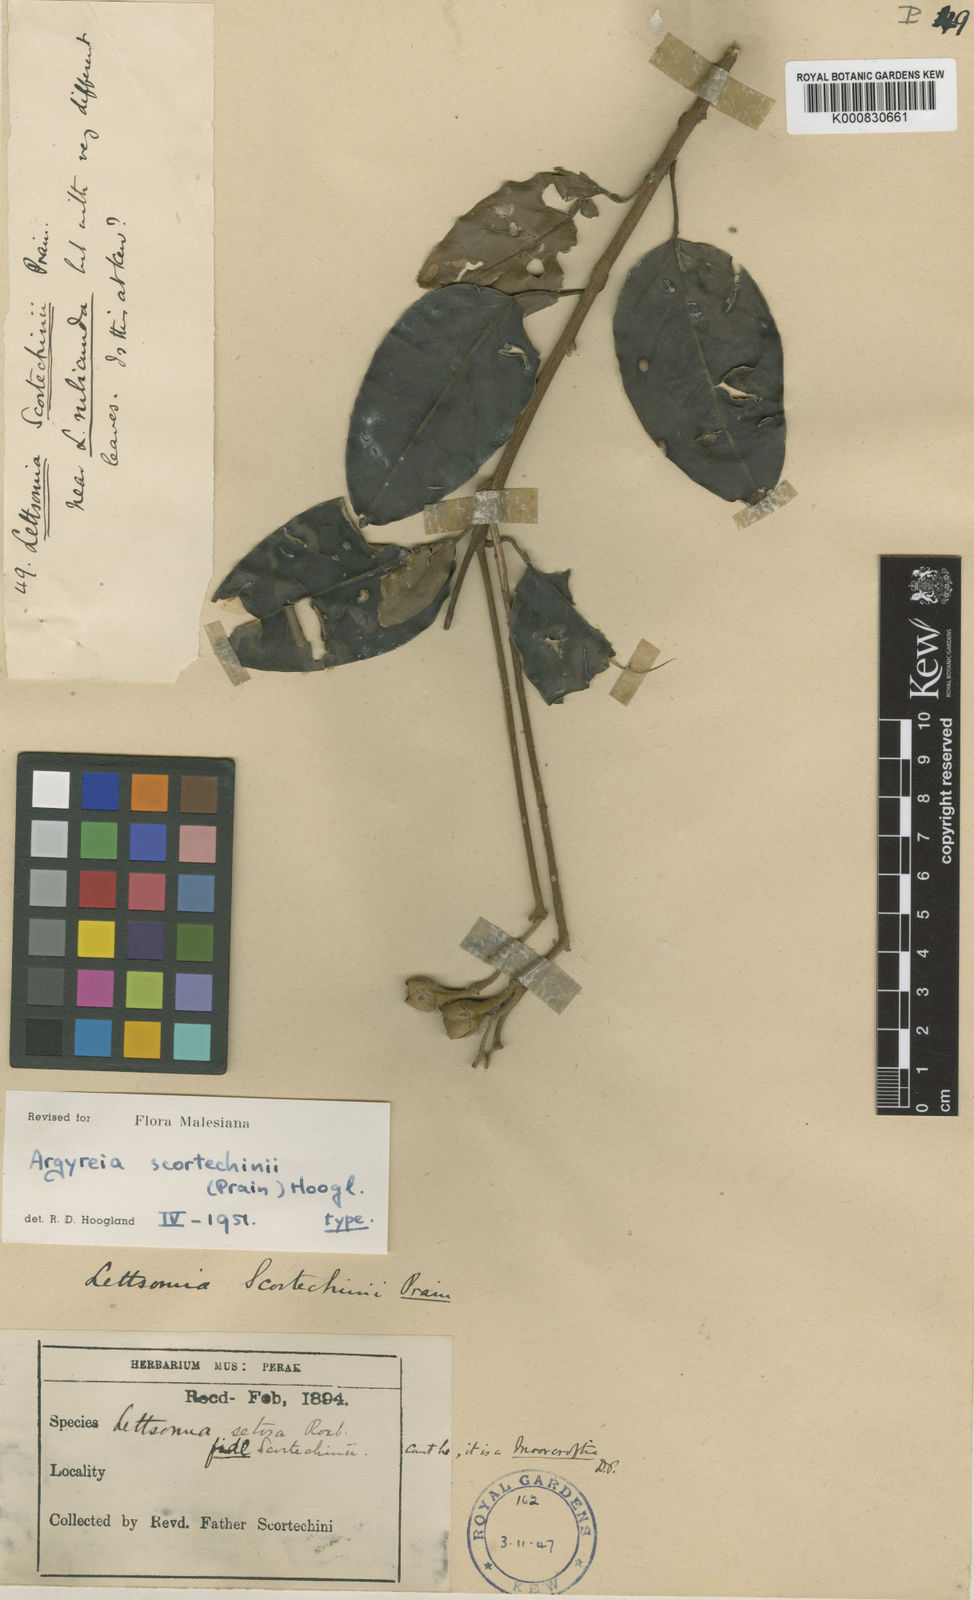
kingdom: Plantae
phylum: Tracheophyta
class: Magnoliopsida
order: Solanales
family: Convolvulaceae
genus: Argyreia
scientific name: Argyreia scortechinii
